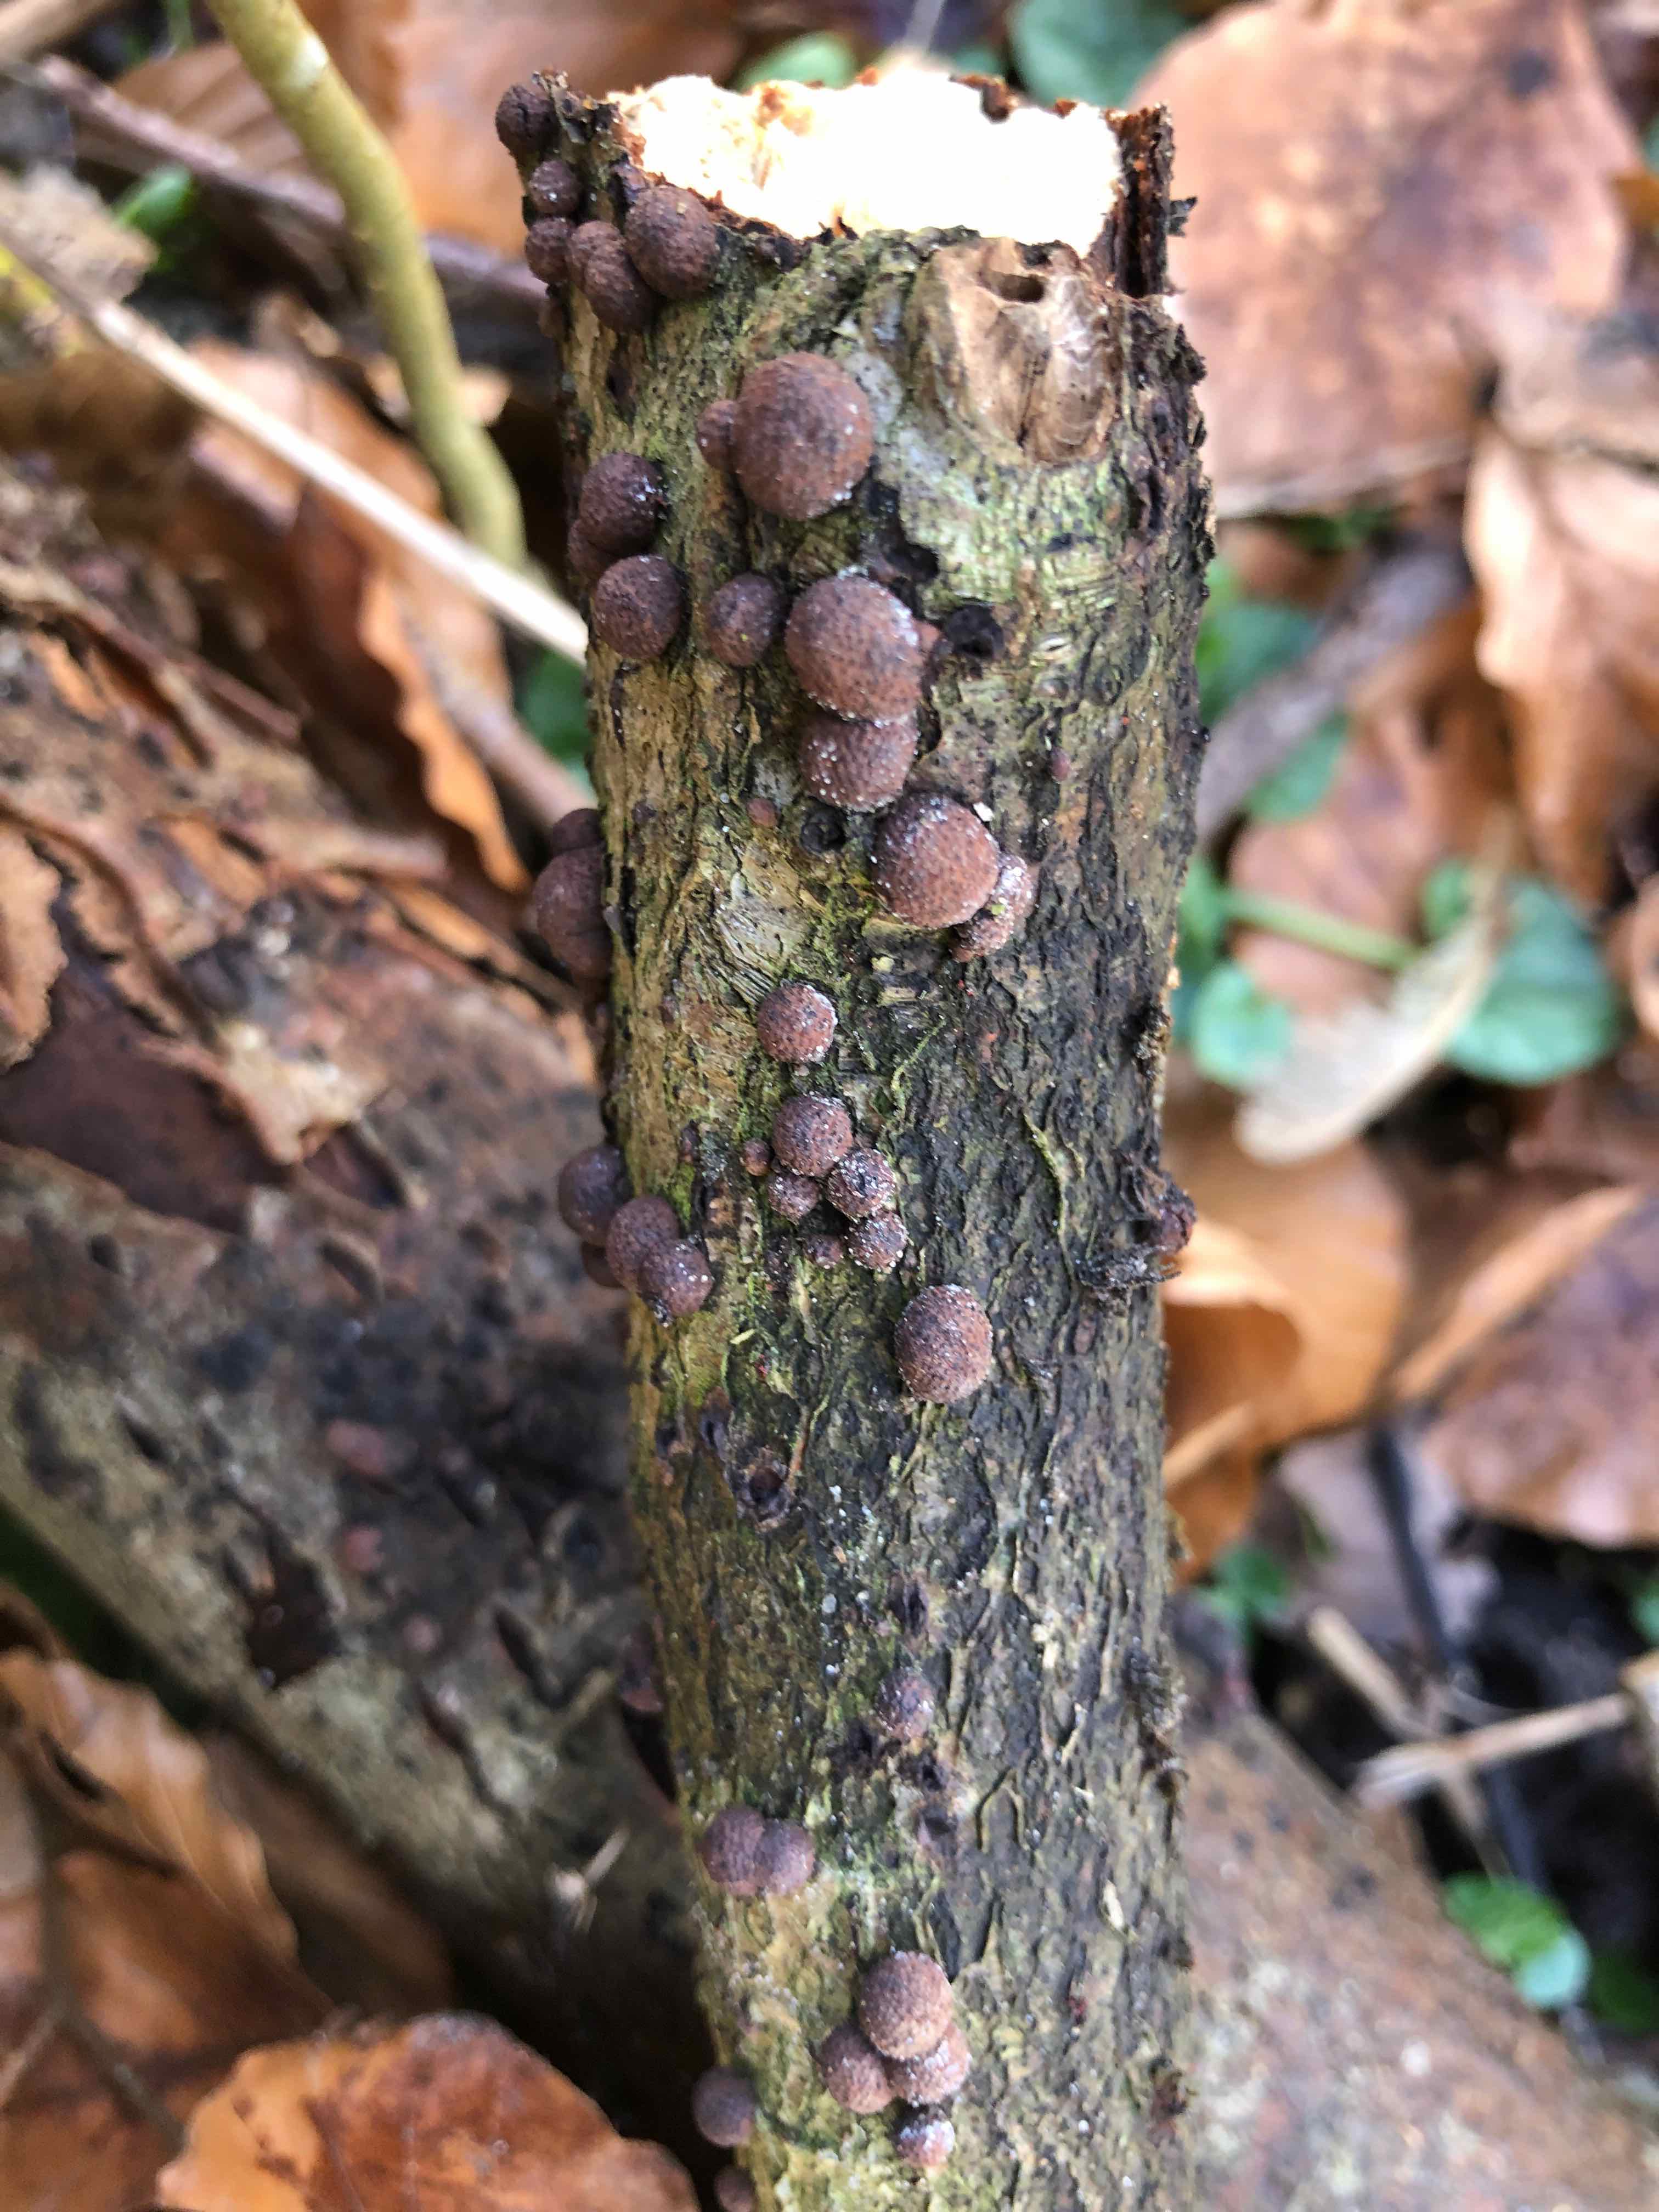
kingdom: Fungi
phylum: Ascomycota
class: Sordariomycetes
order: Xylariales
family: Hypoxylaceae
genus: Hypoxylon
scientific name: Hypoxylon fragiforme
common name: kuljordbær
